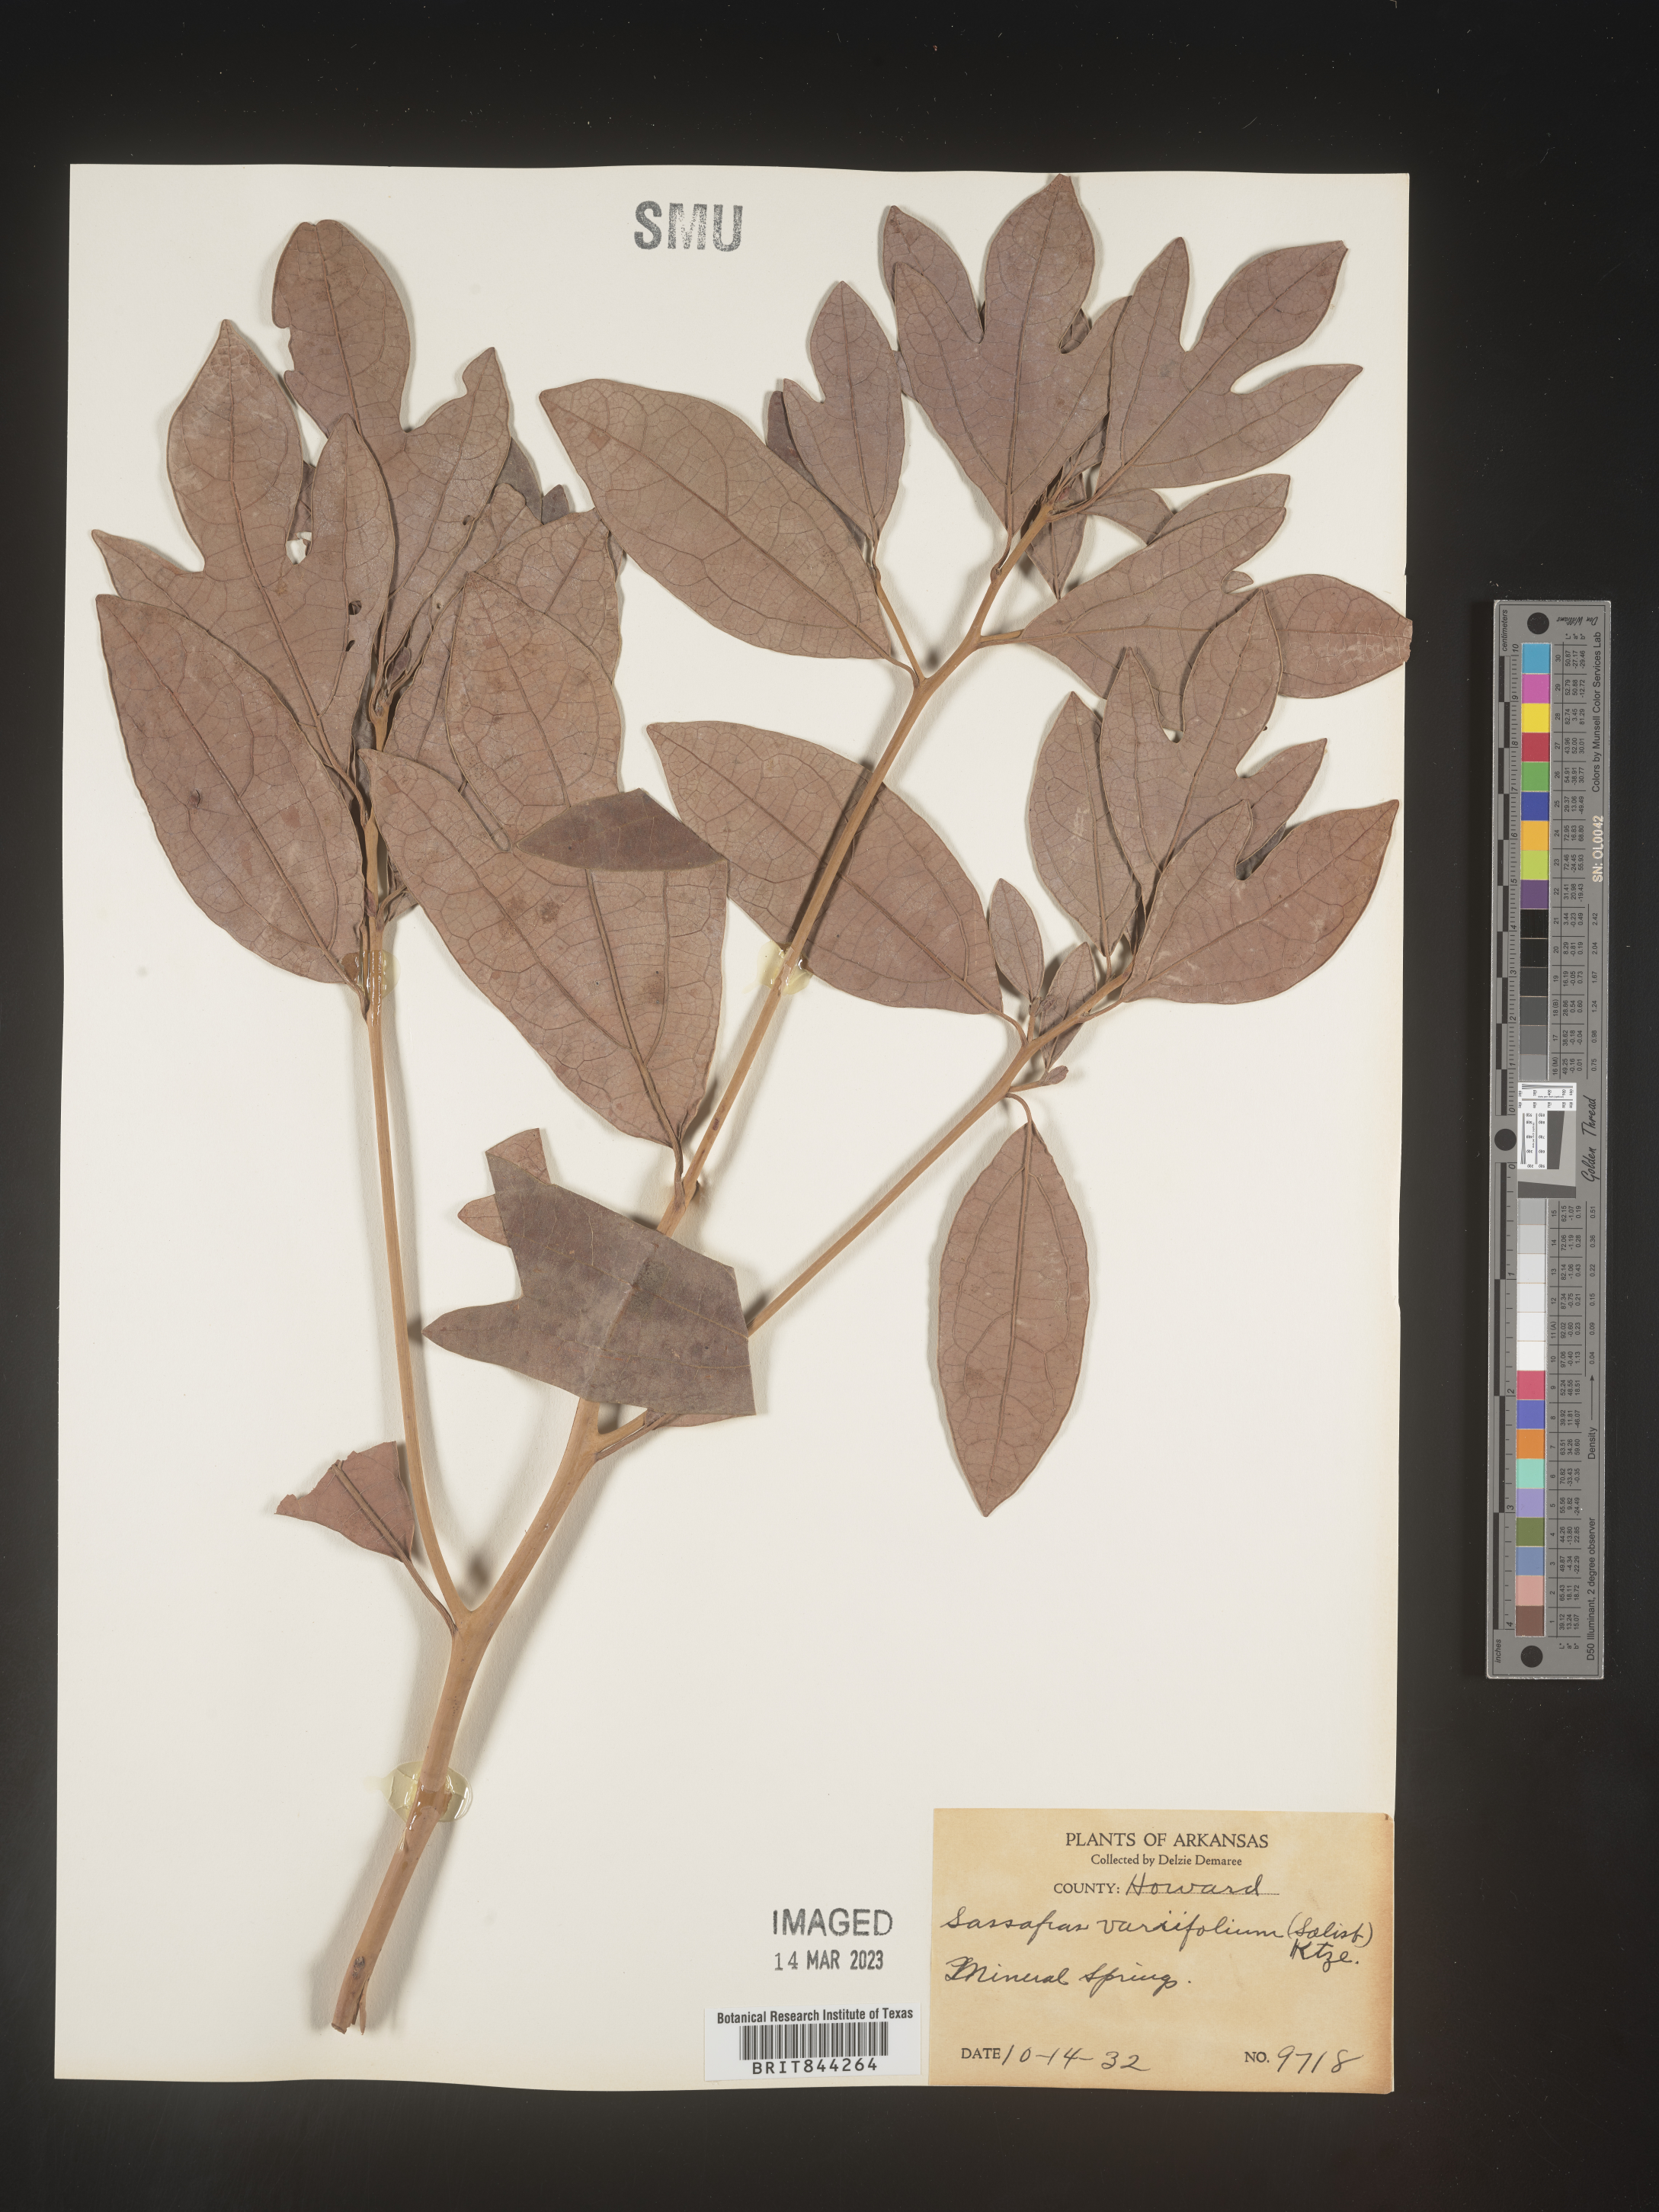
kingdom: Plantae
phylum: Tracheophyta
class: Magnoliopsida
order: Laurales
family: Lauraceae
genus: Sassafras
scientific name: Sassafras albidum
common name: Sassafras
